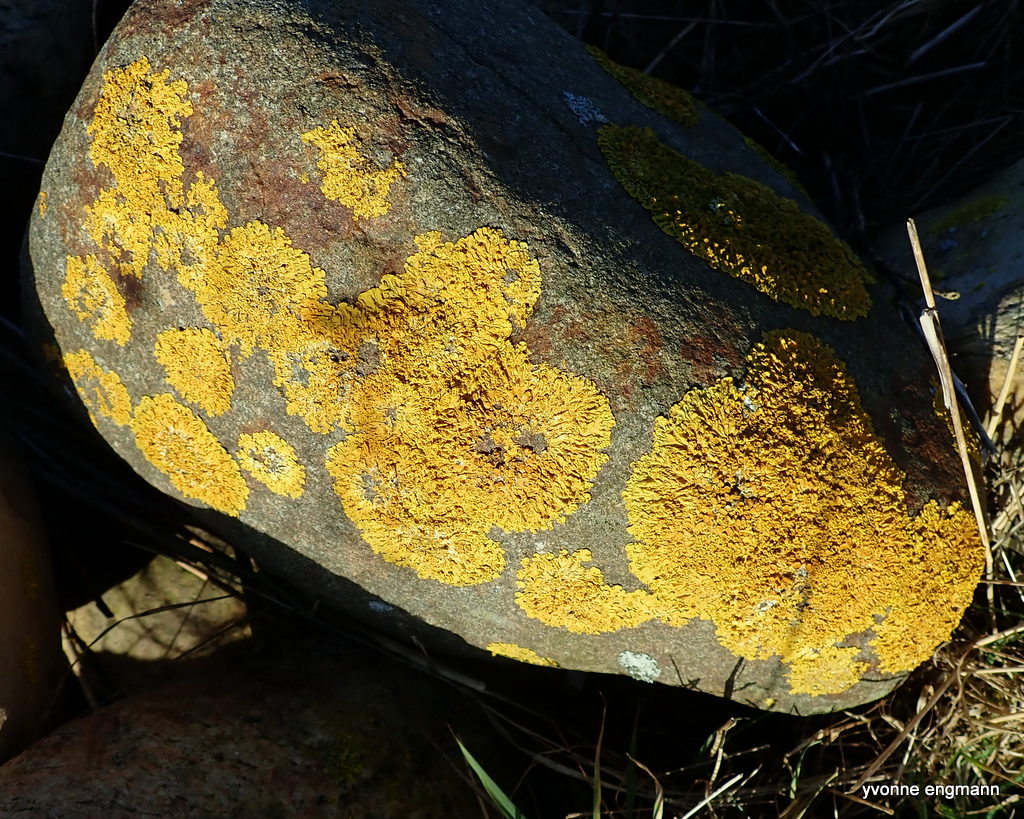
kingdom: Fungi
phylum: Ascomycota
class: Lecanoromycetes
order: Teloschistales
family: Teloschistaceae
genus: Xanthoria
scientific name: Xanthoria parietina
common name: almindelig væggelav
